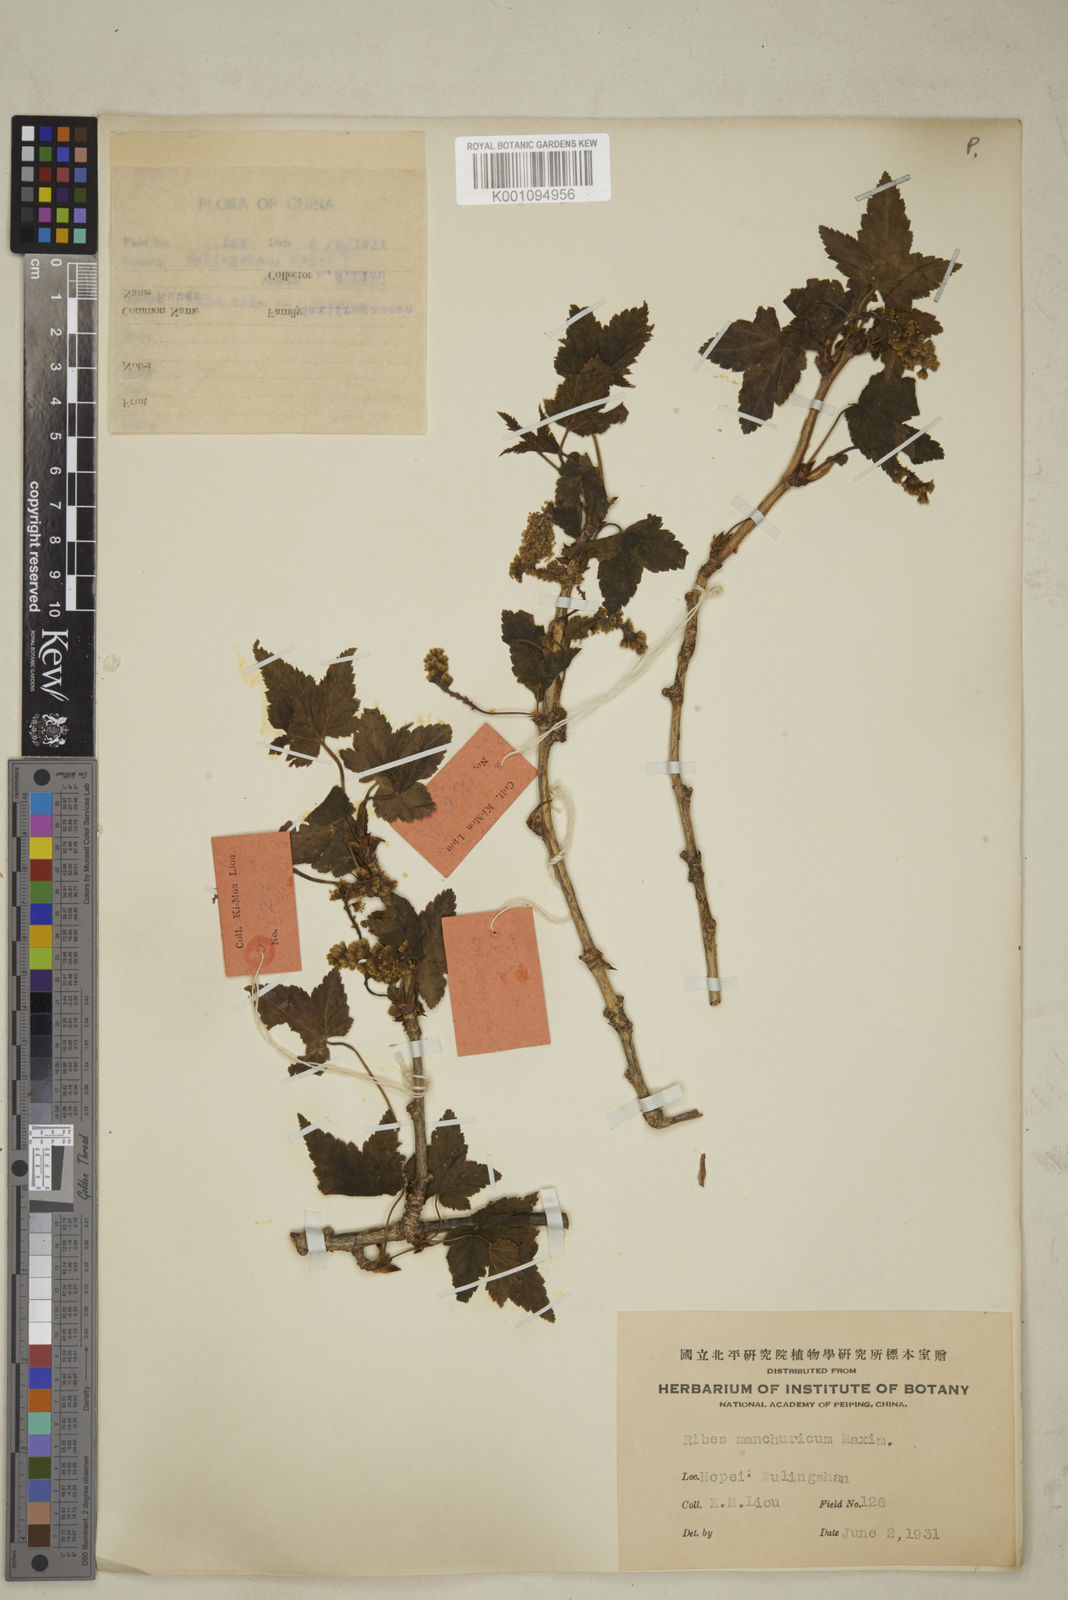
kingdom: Plantae
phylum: Tracheophyta
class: Magnoliopsida
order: Saxifragales
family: Grossulariaceae
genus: Ribes
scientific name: Ribes
